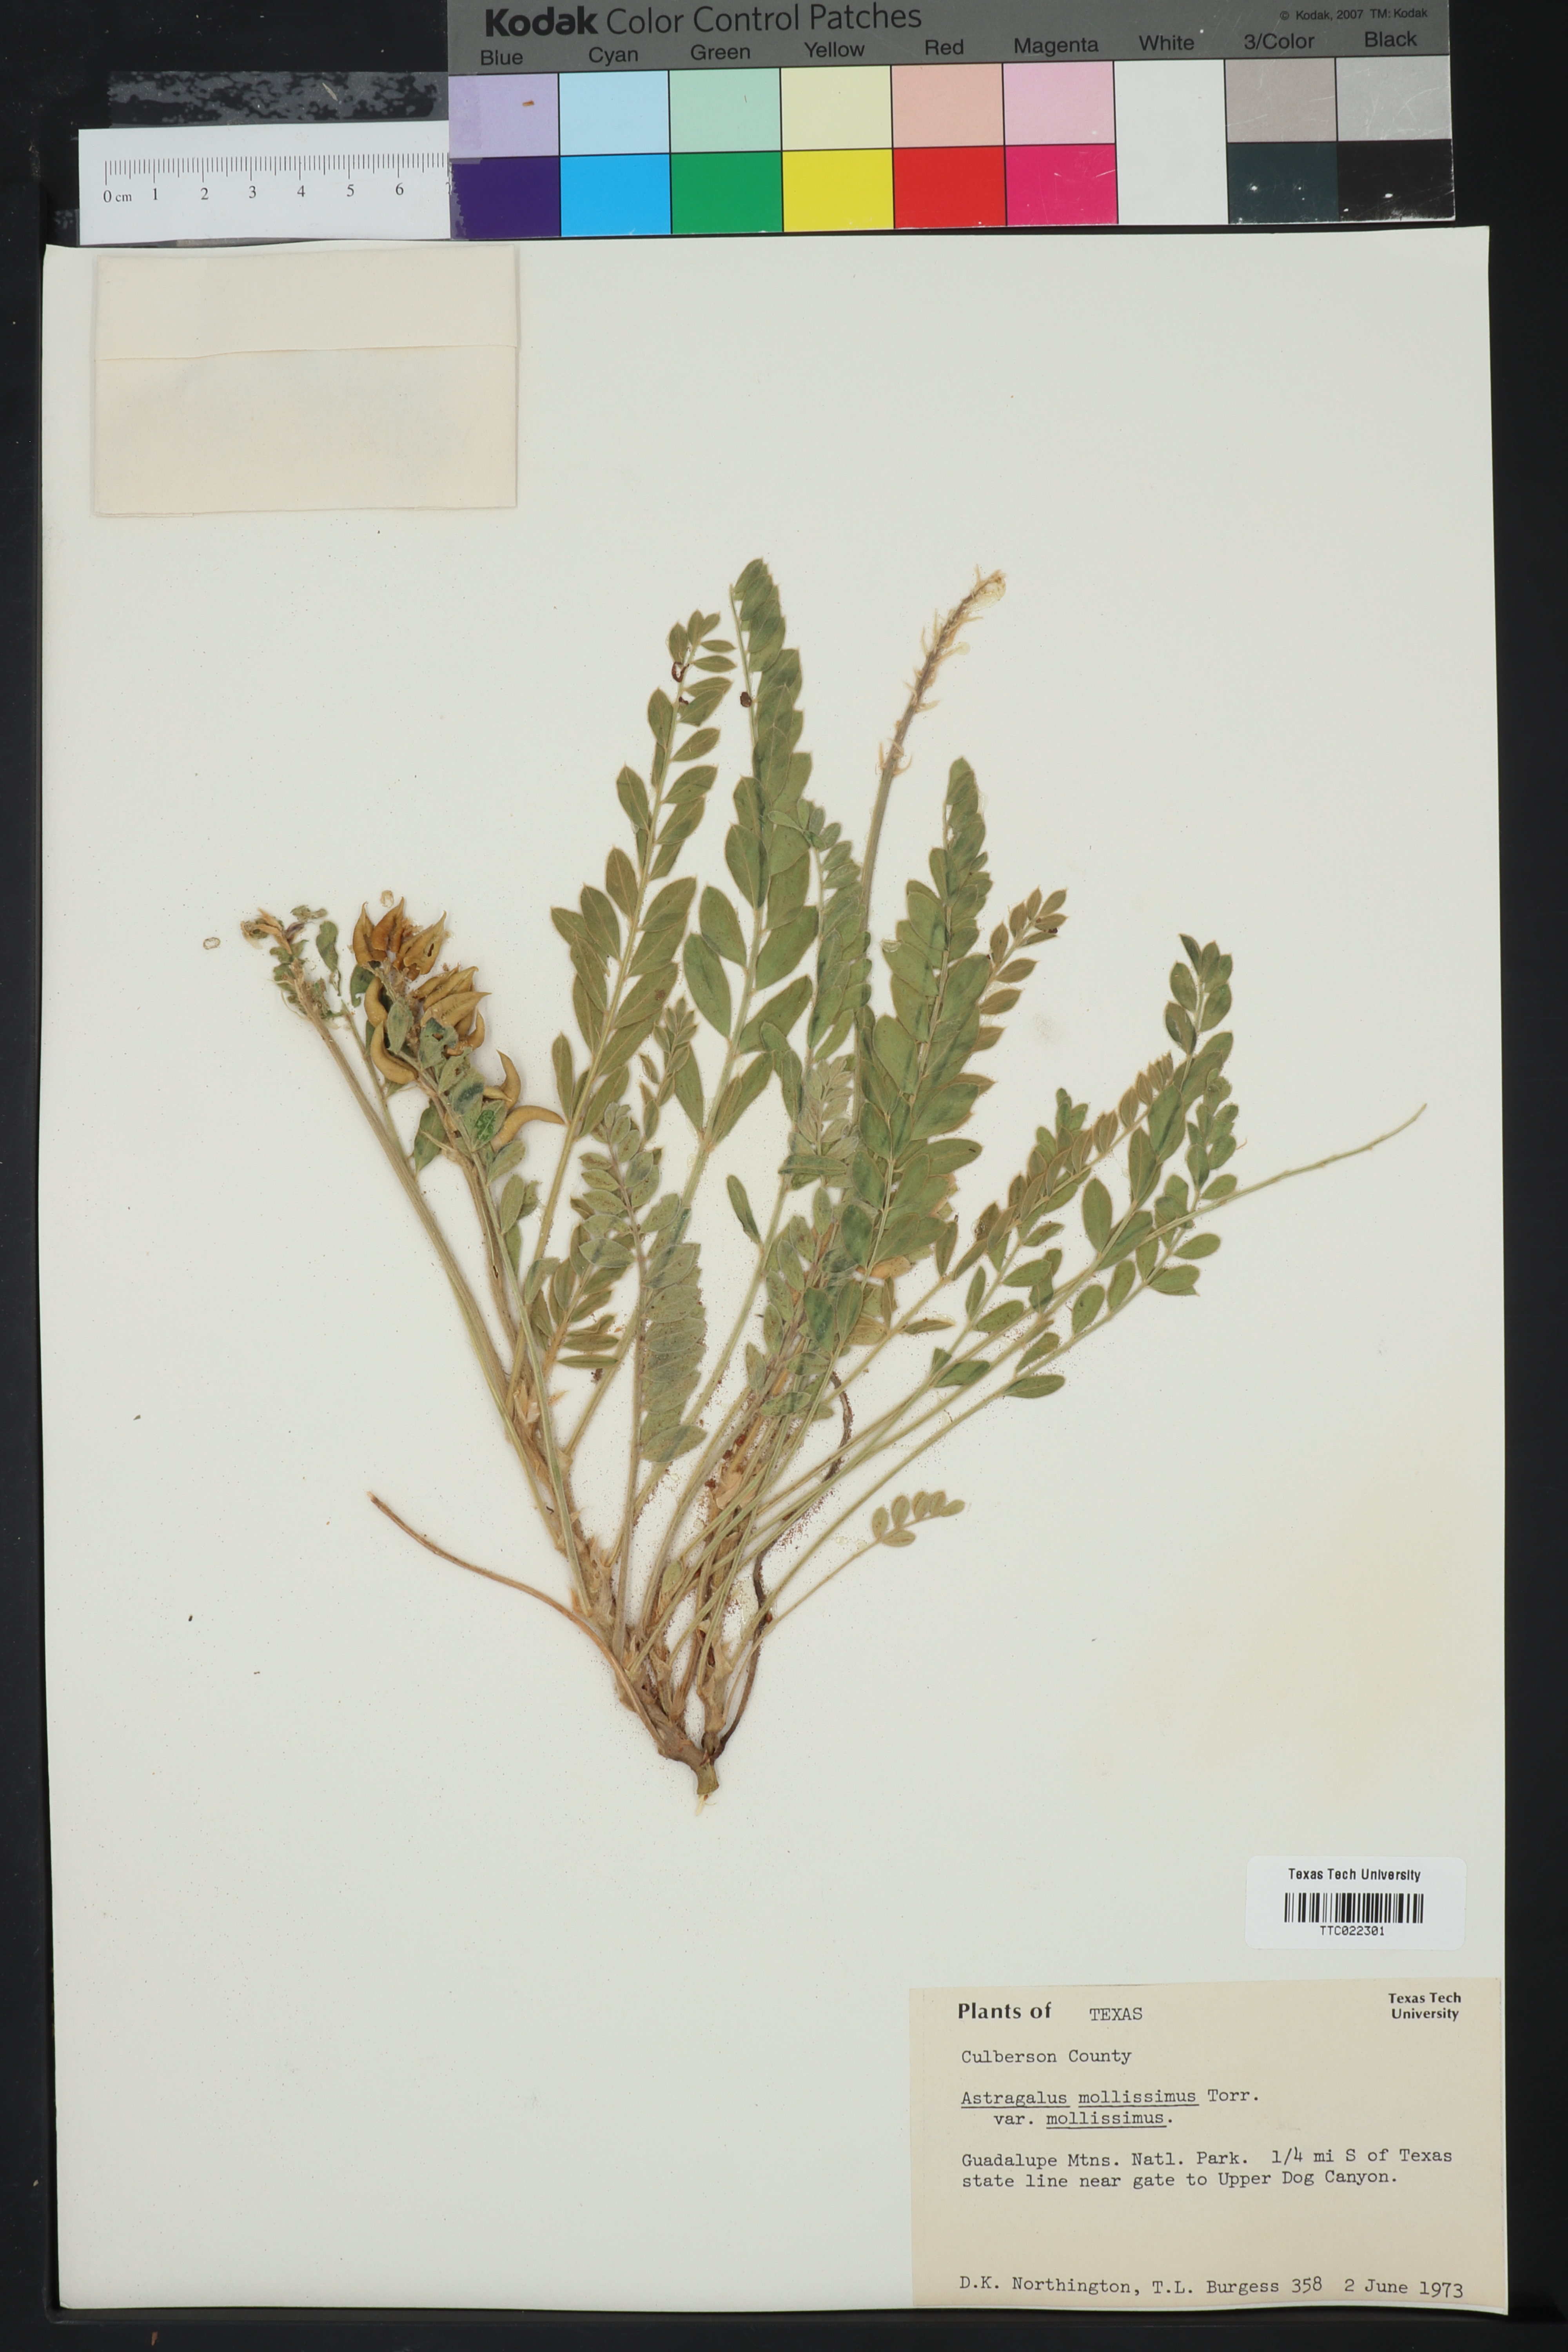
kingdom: Plantae
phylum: Tracheophyta
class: Magnoliopsida
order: Fabales
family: Fabaceae
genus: Astragalus
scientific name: Astragalus mollissimus
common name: Woolly locoweed
